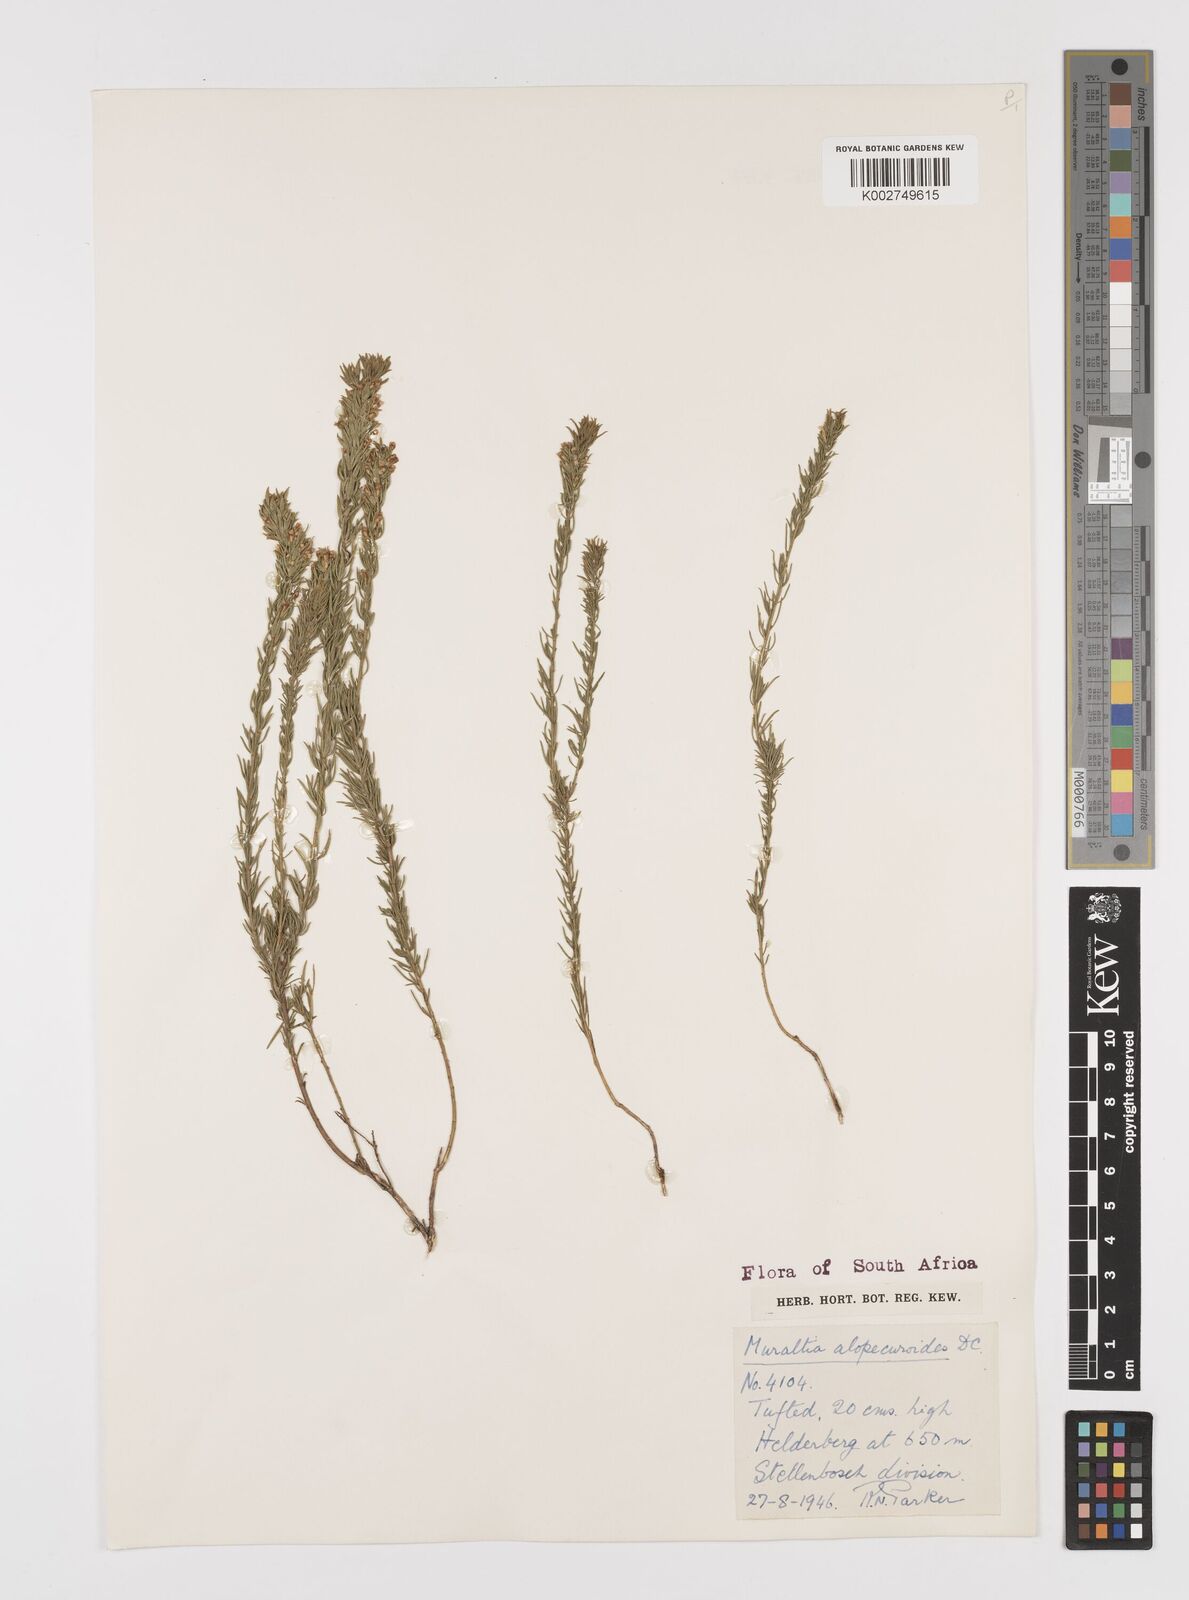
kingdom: Plantae
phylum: Tracheophyta
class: Magnoliopsida
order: Fabales
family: Polygalaceae
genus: Muraltia
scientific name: Muraltia alopecuroides
